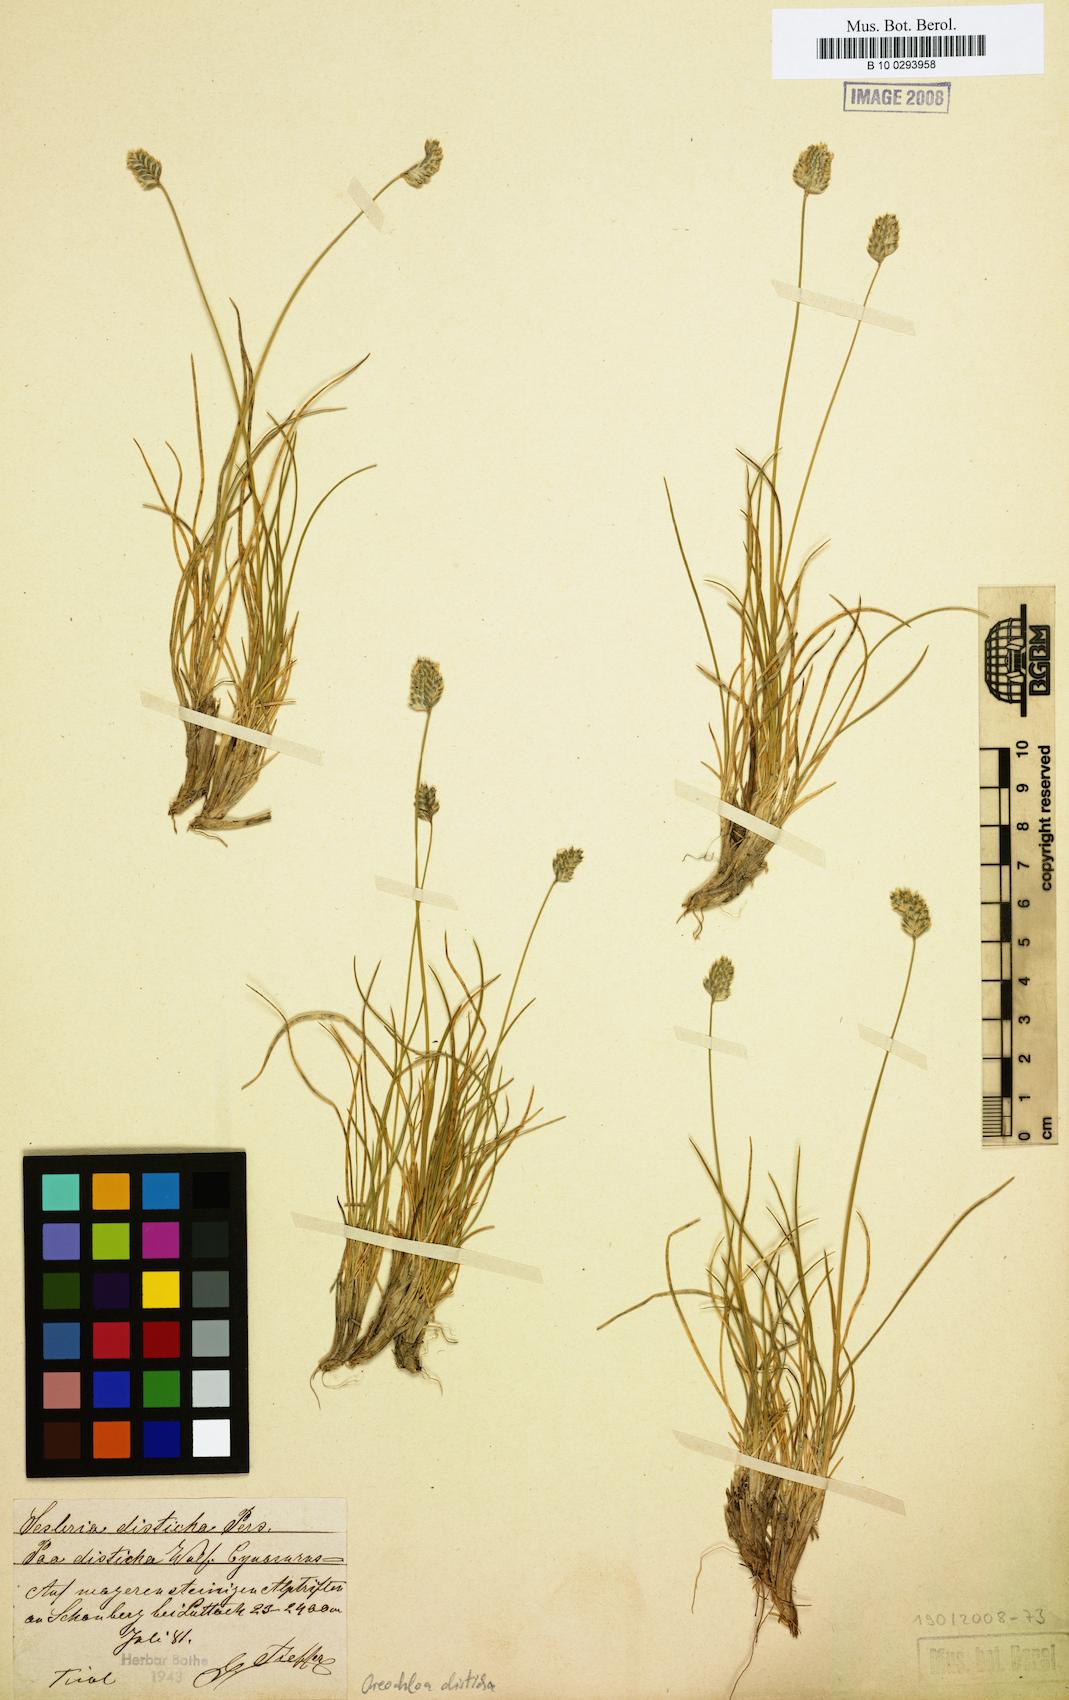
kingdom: Plantae
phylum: Tracheophyta
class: Liliopsida
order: Poales
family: Poaceae
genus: Oreochloa
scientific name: Oreochloa disticha
